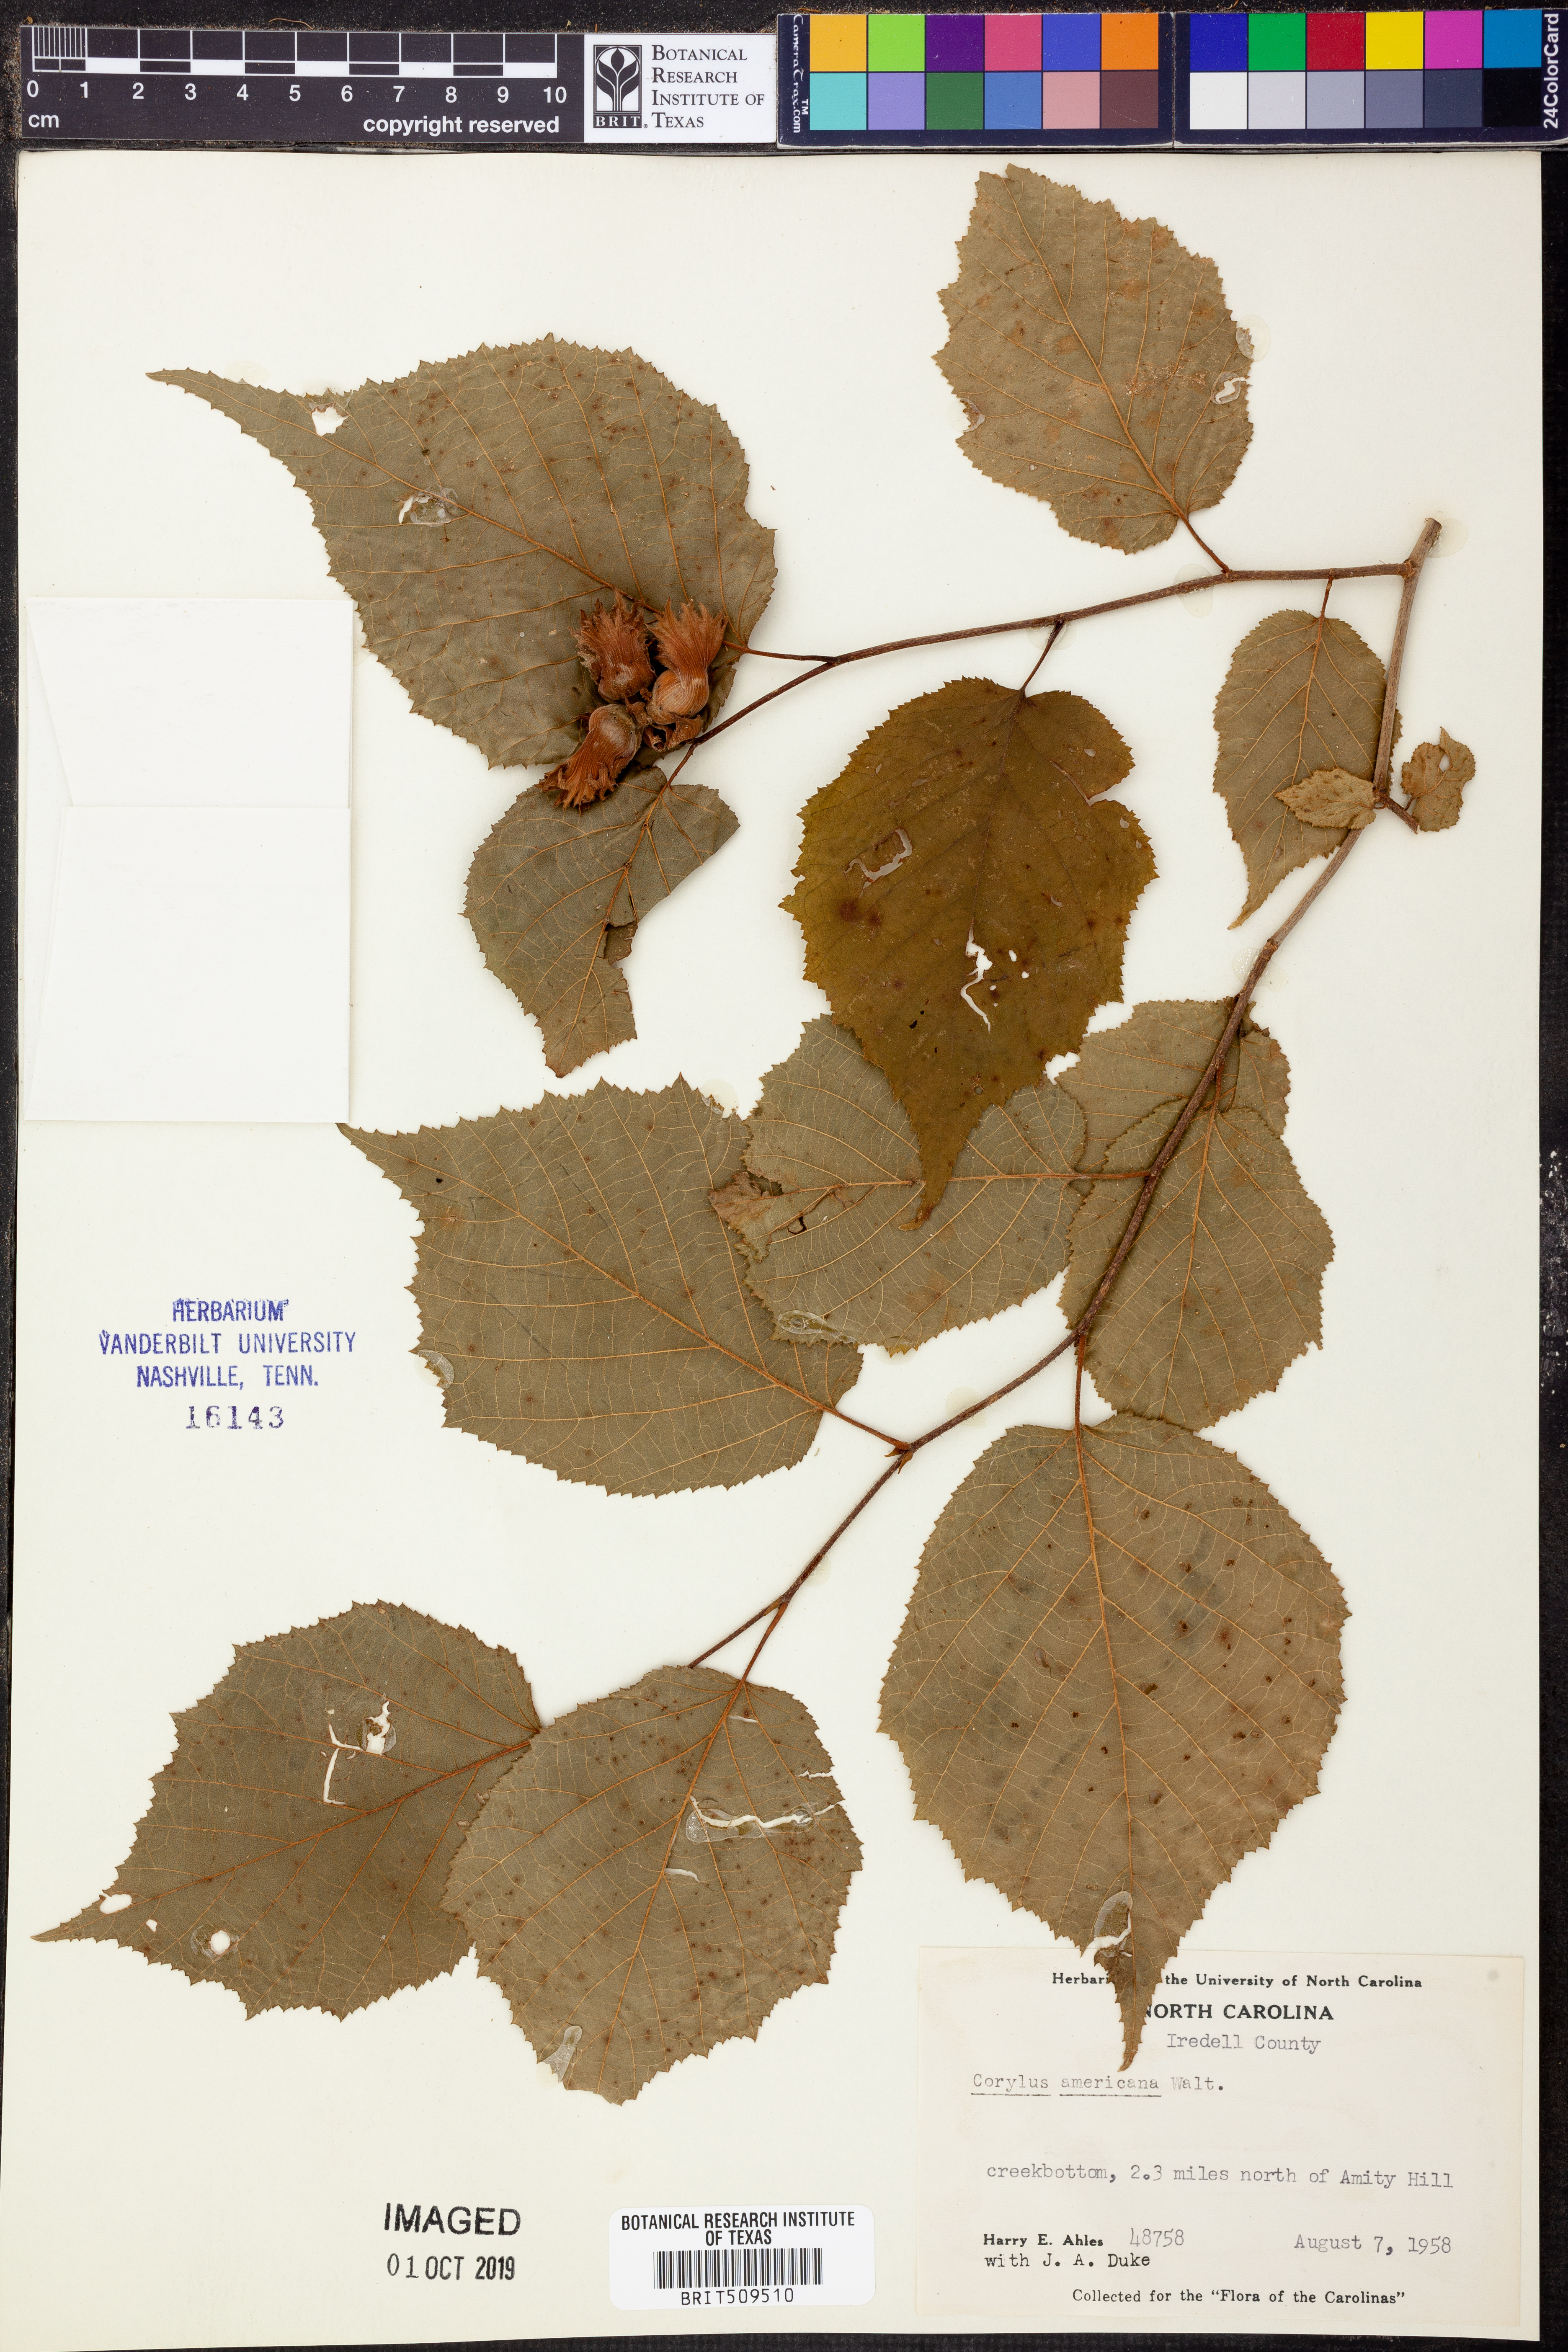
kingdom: Plantae
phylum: Tracheophyta
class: Magnoliopsida
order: Fagales
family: Betulaceae
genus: Corylus
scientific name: Corylus americana
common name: American hazel
